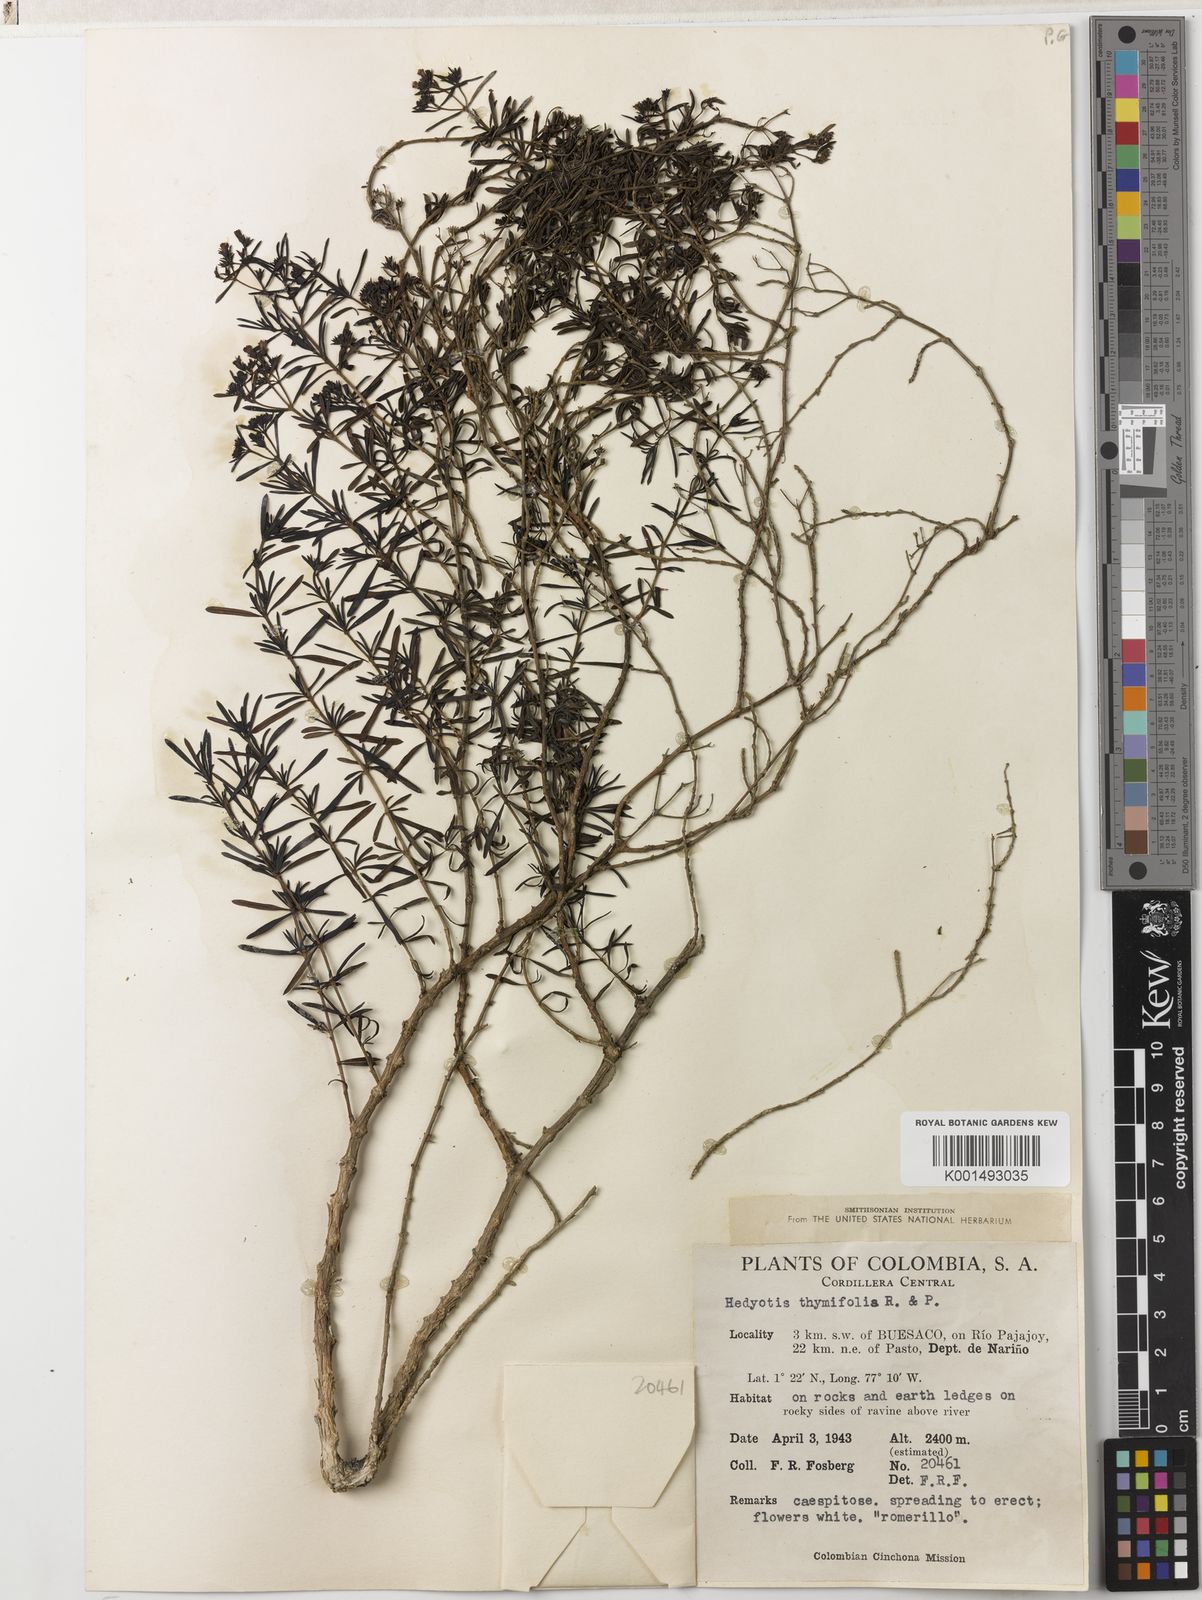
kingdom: Plantae
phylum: Tracheophyta
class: Magnoliopsida
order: Gentianales
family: Rubiaceae
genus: Arcytophyllum
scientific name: Arcytophyllum thymifolium
